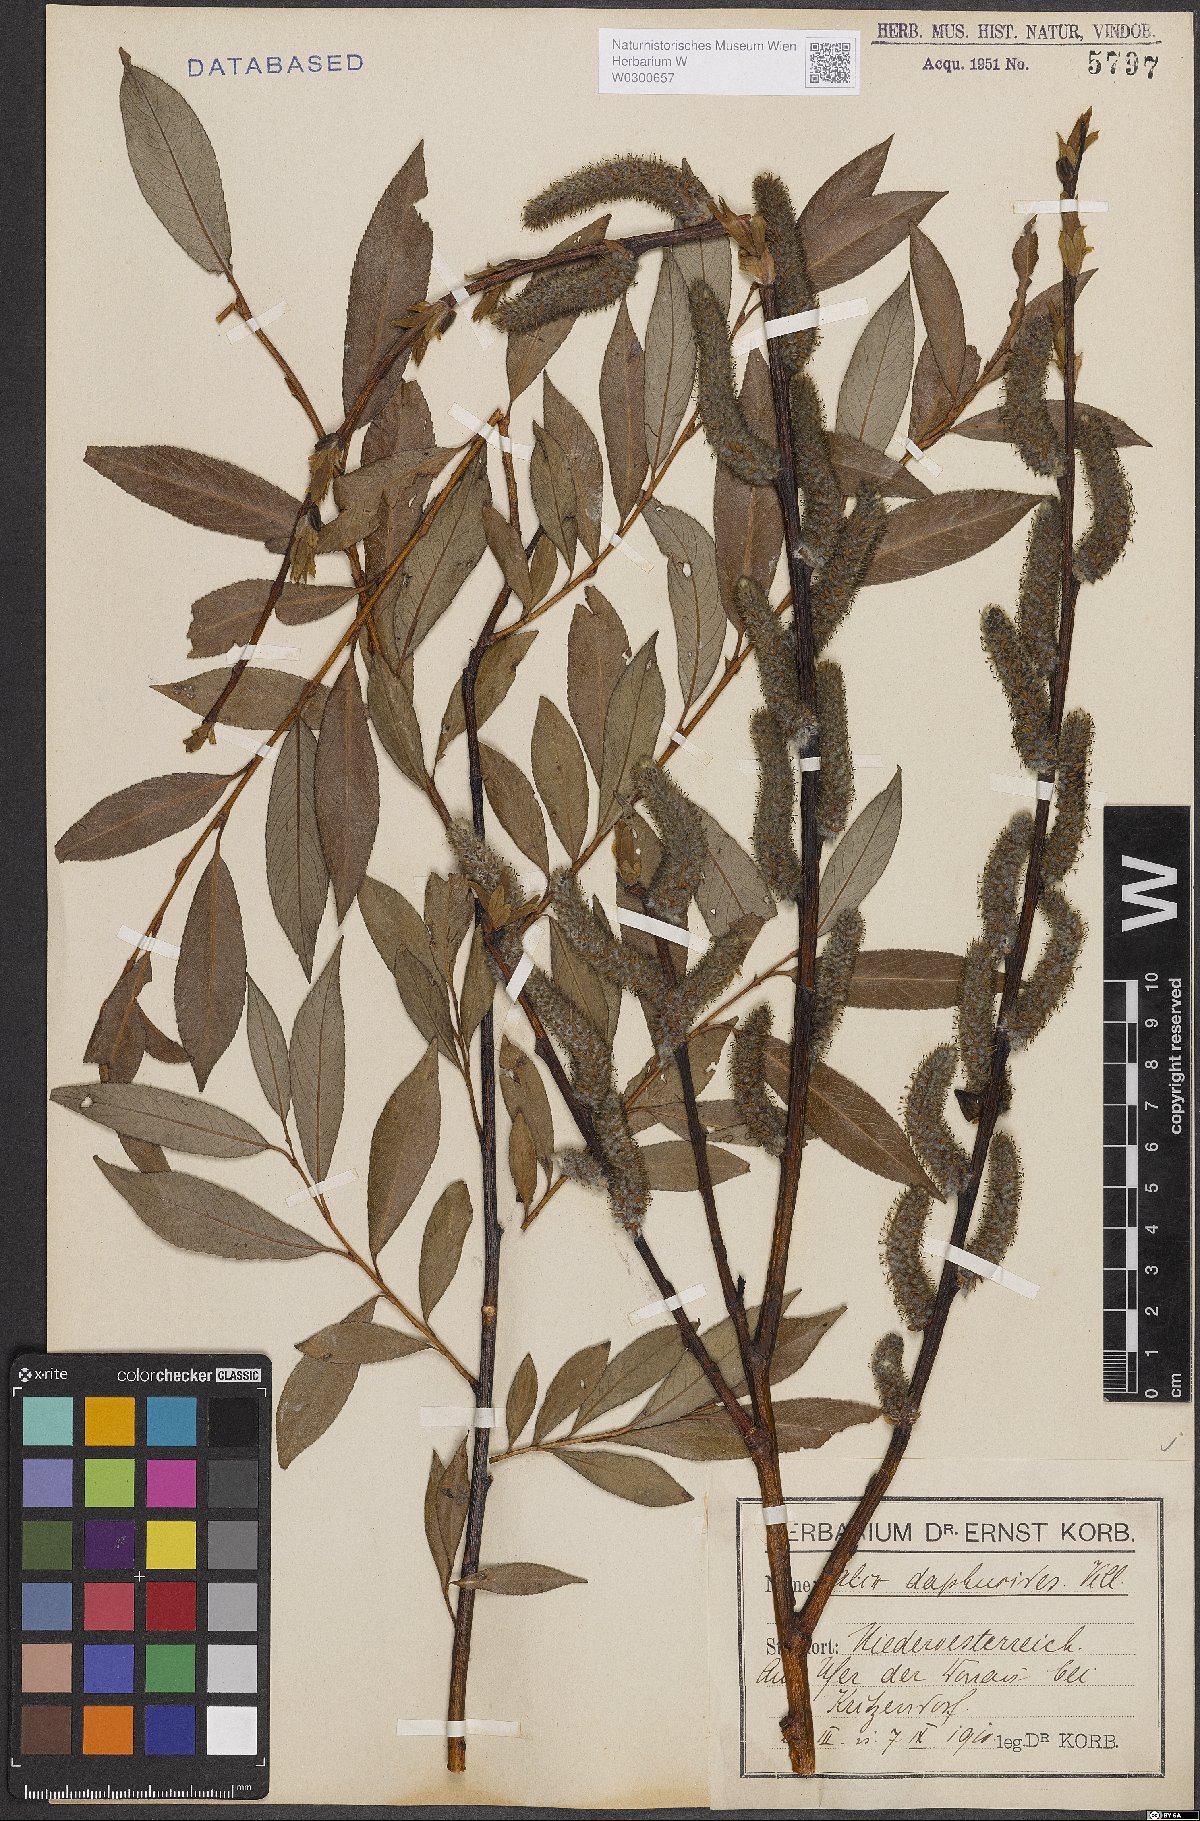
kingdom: Plantae
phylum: Tracheophyta
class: Magnoliopsida
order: Malpighiales
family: Salicaceae
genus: Salix
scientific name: Salix daphnoides
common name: European violet-willow
